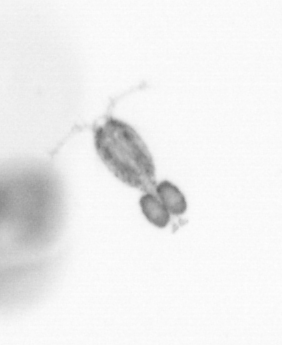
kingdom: Animalia
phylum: Arthropoda
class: Copepoda
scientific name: Copepoda
